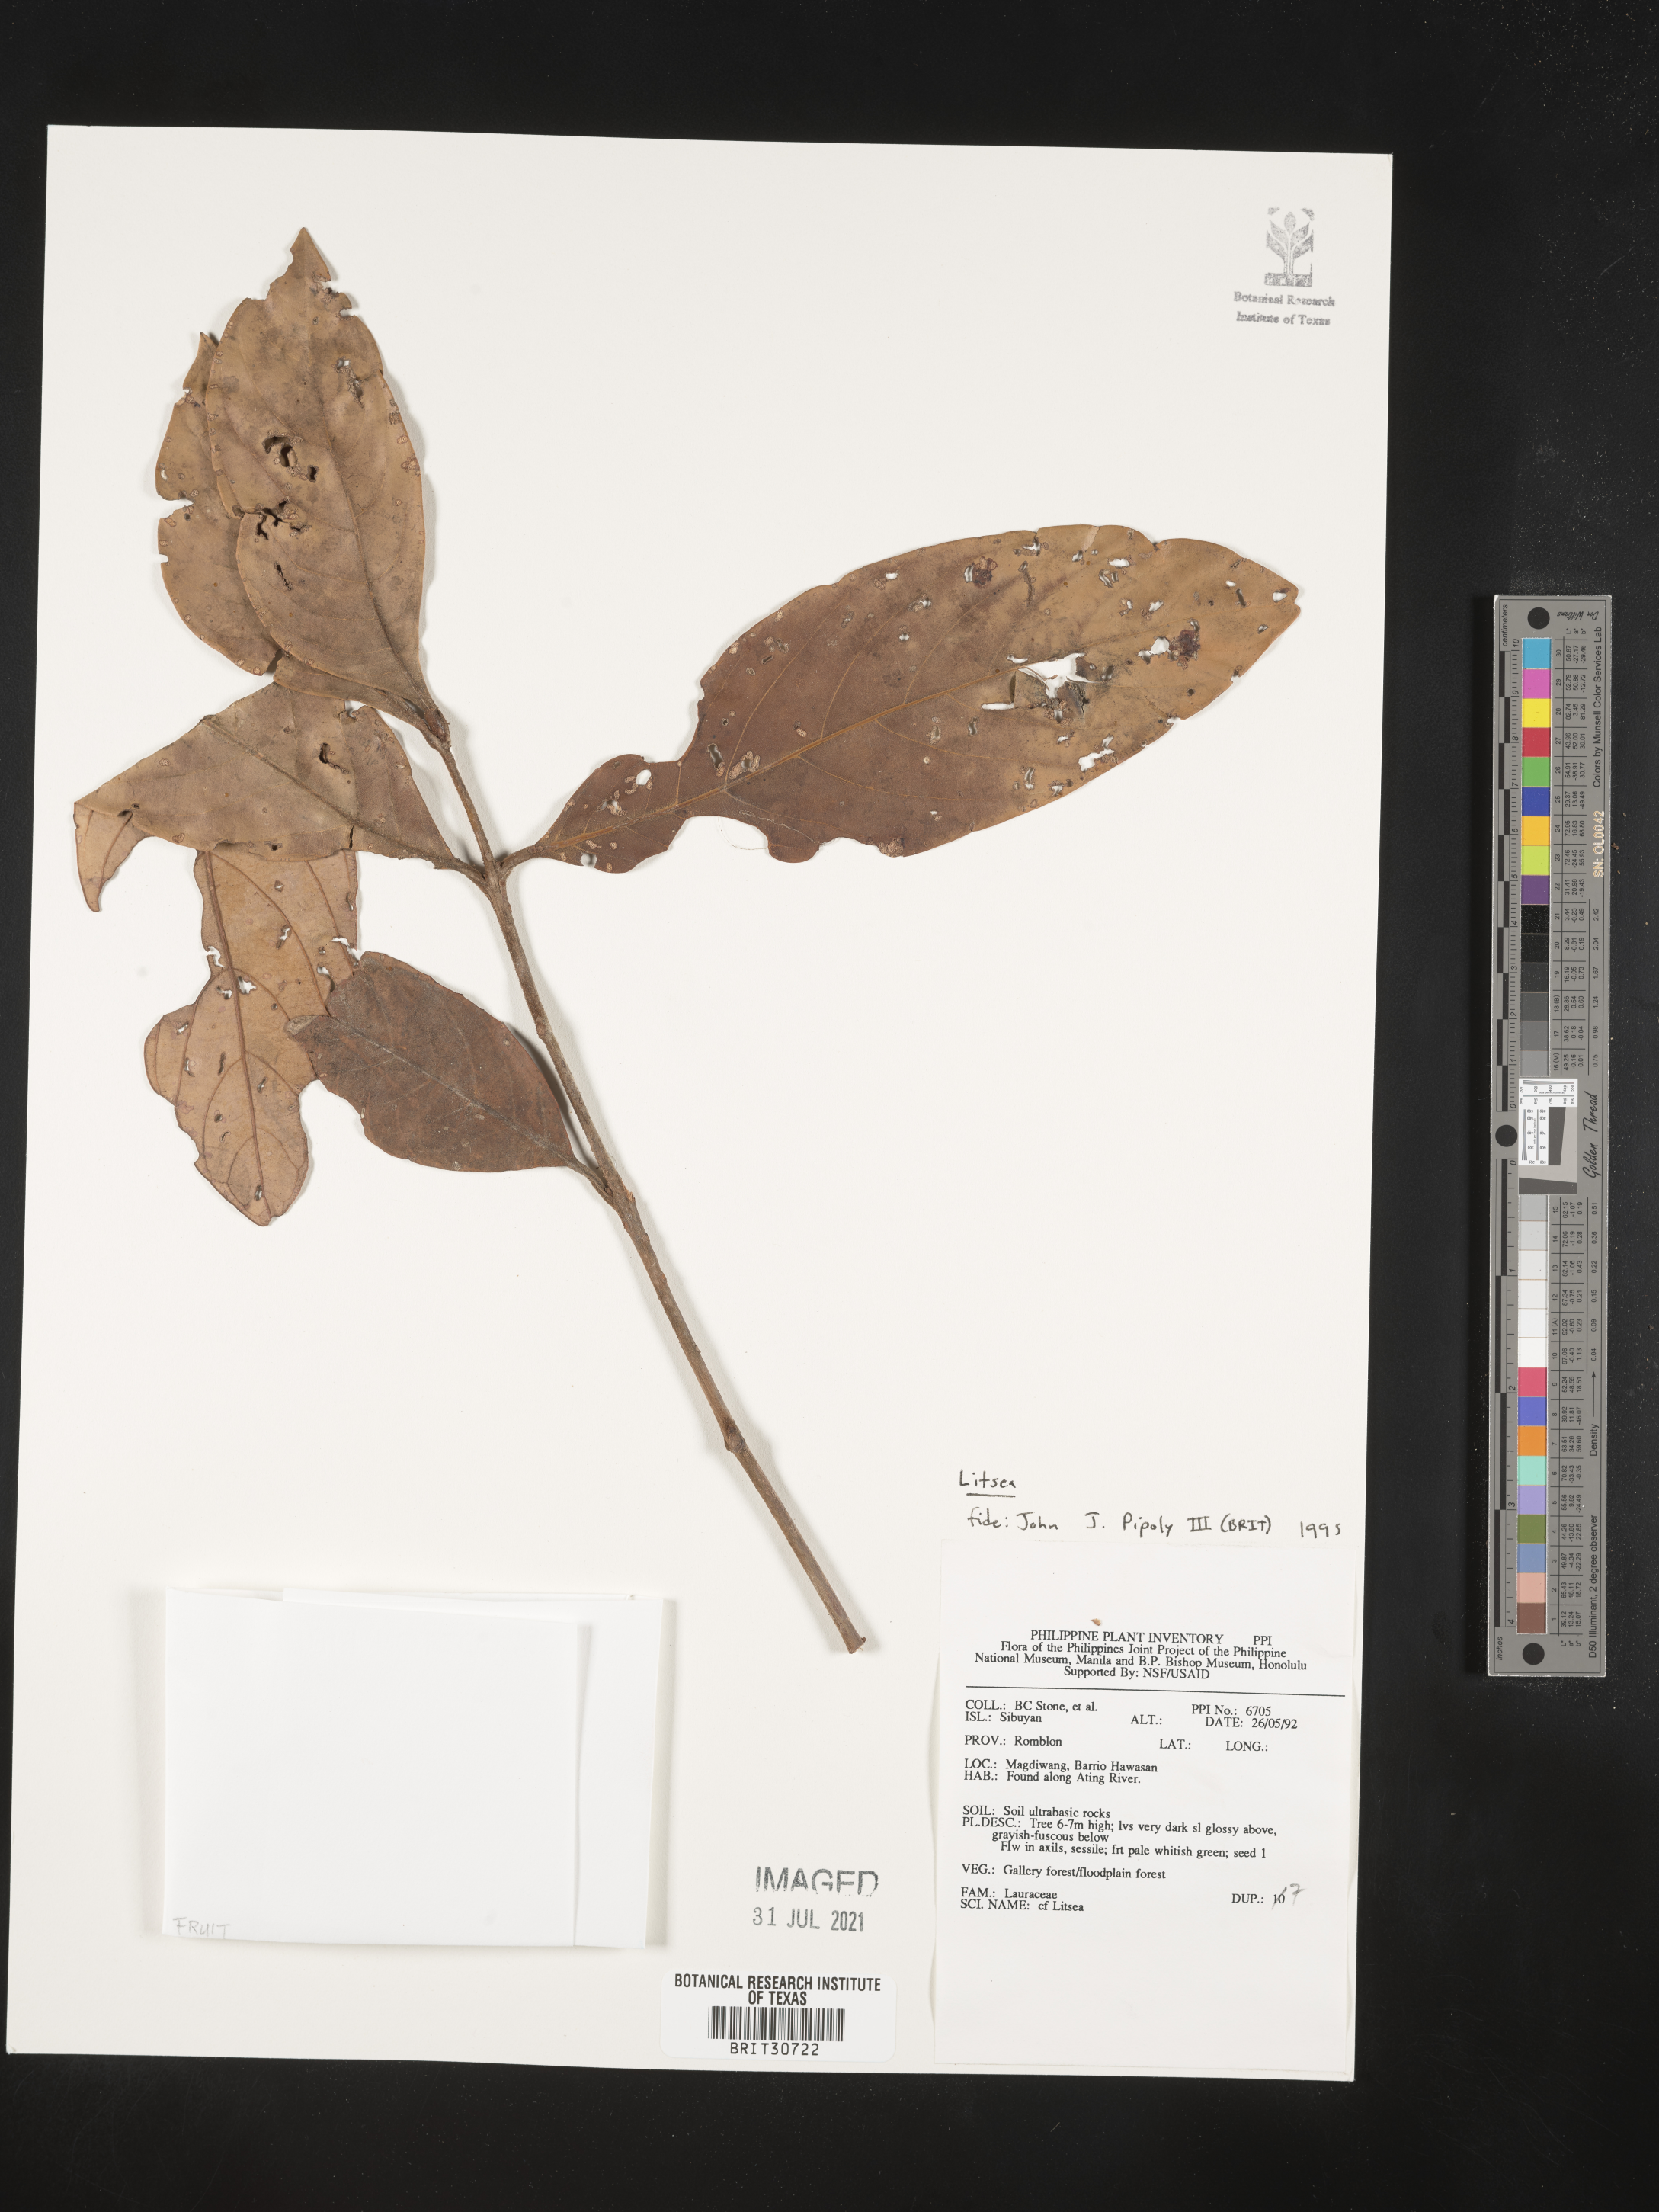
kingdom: Plantae
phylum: Tracheophyta
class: Magnoliopsida
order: Laurales
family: Lauraceae
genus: Litsea
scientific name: Litsea
